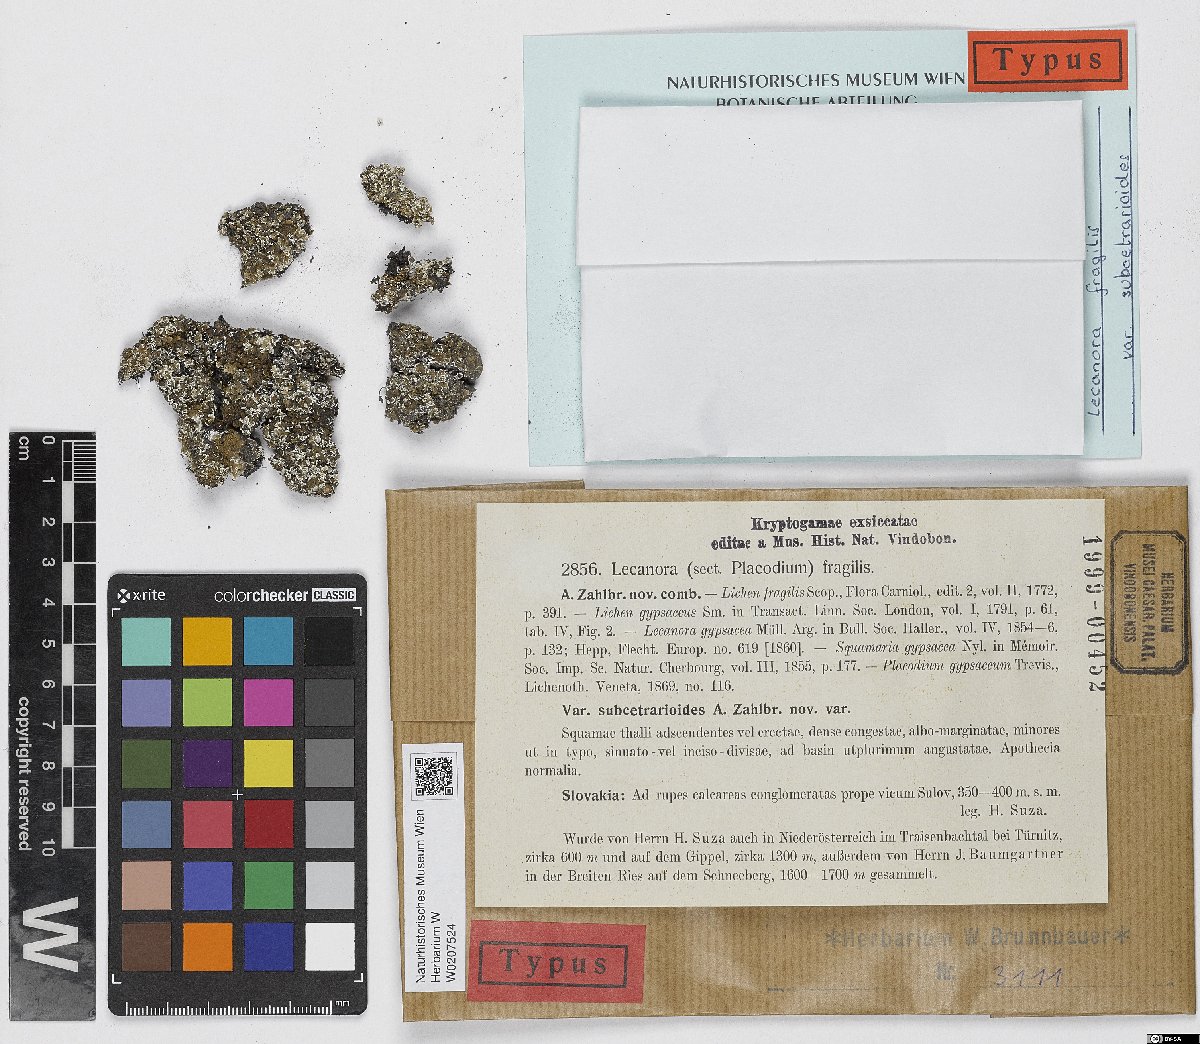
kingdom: Fungi
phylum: Ascomycota
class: Lecanoromycetes
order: Lecanorales
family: Stereocaulaceae
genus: Squamarina
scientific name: Squamarina gypsacea
